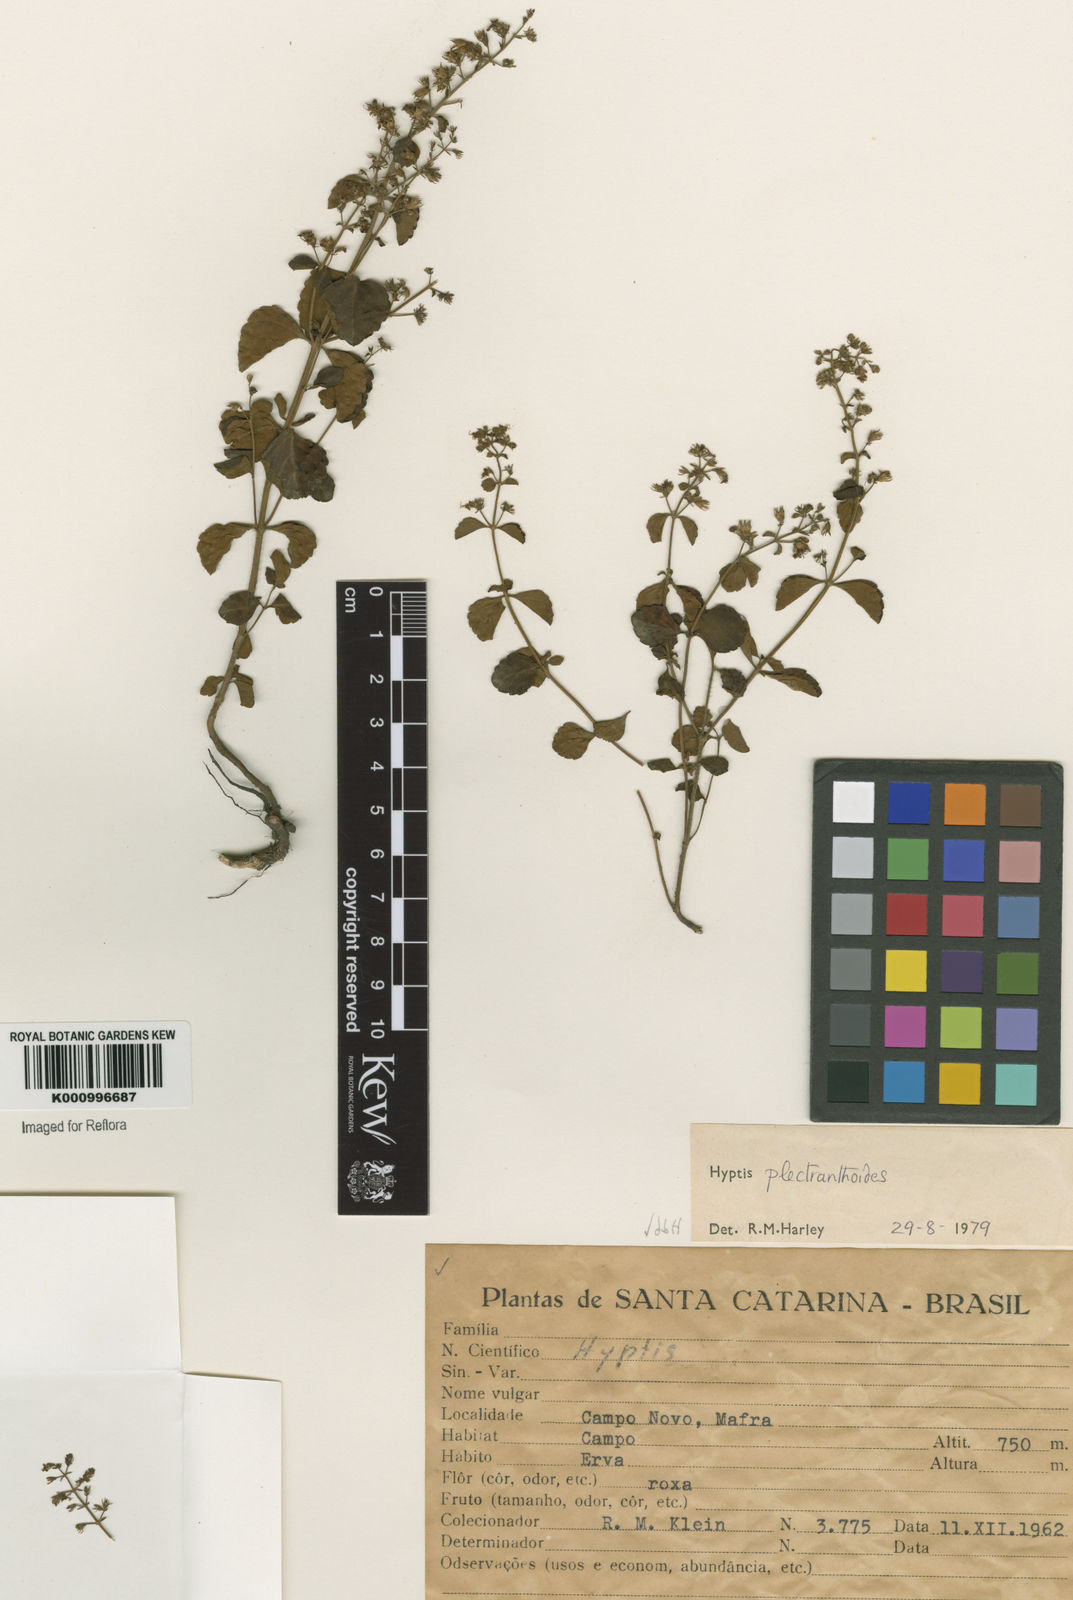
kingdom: Plantae
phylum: Tracheophyta
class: Magnoliopsida
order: Lamiales
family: Lamiaceae
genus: Cantinoa
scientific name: Cantinoa plectranthoides
